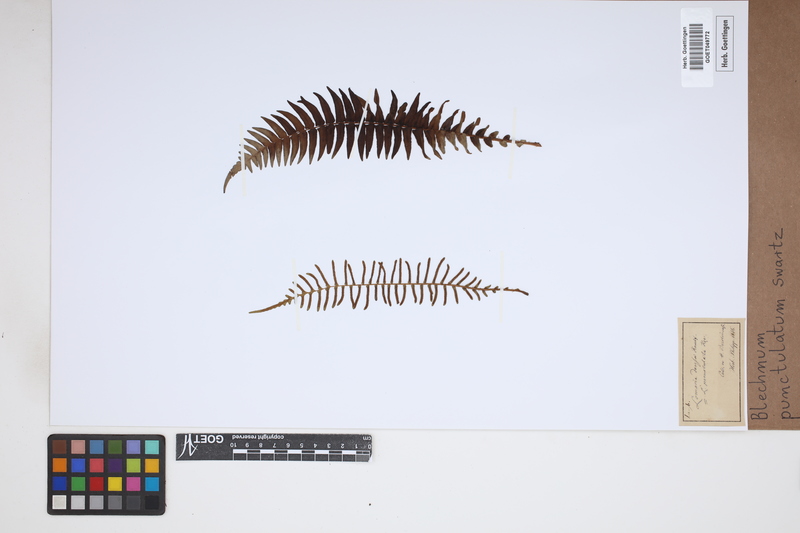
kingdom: Plantae
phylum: Tracheophyta
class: Polypodiopsida
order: Polypodiales
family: Blechnaceae
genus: Blechnum
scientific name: Blechnum punctulatum
